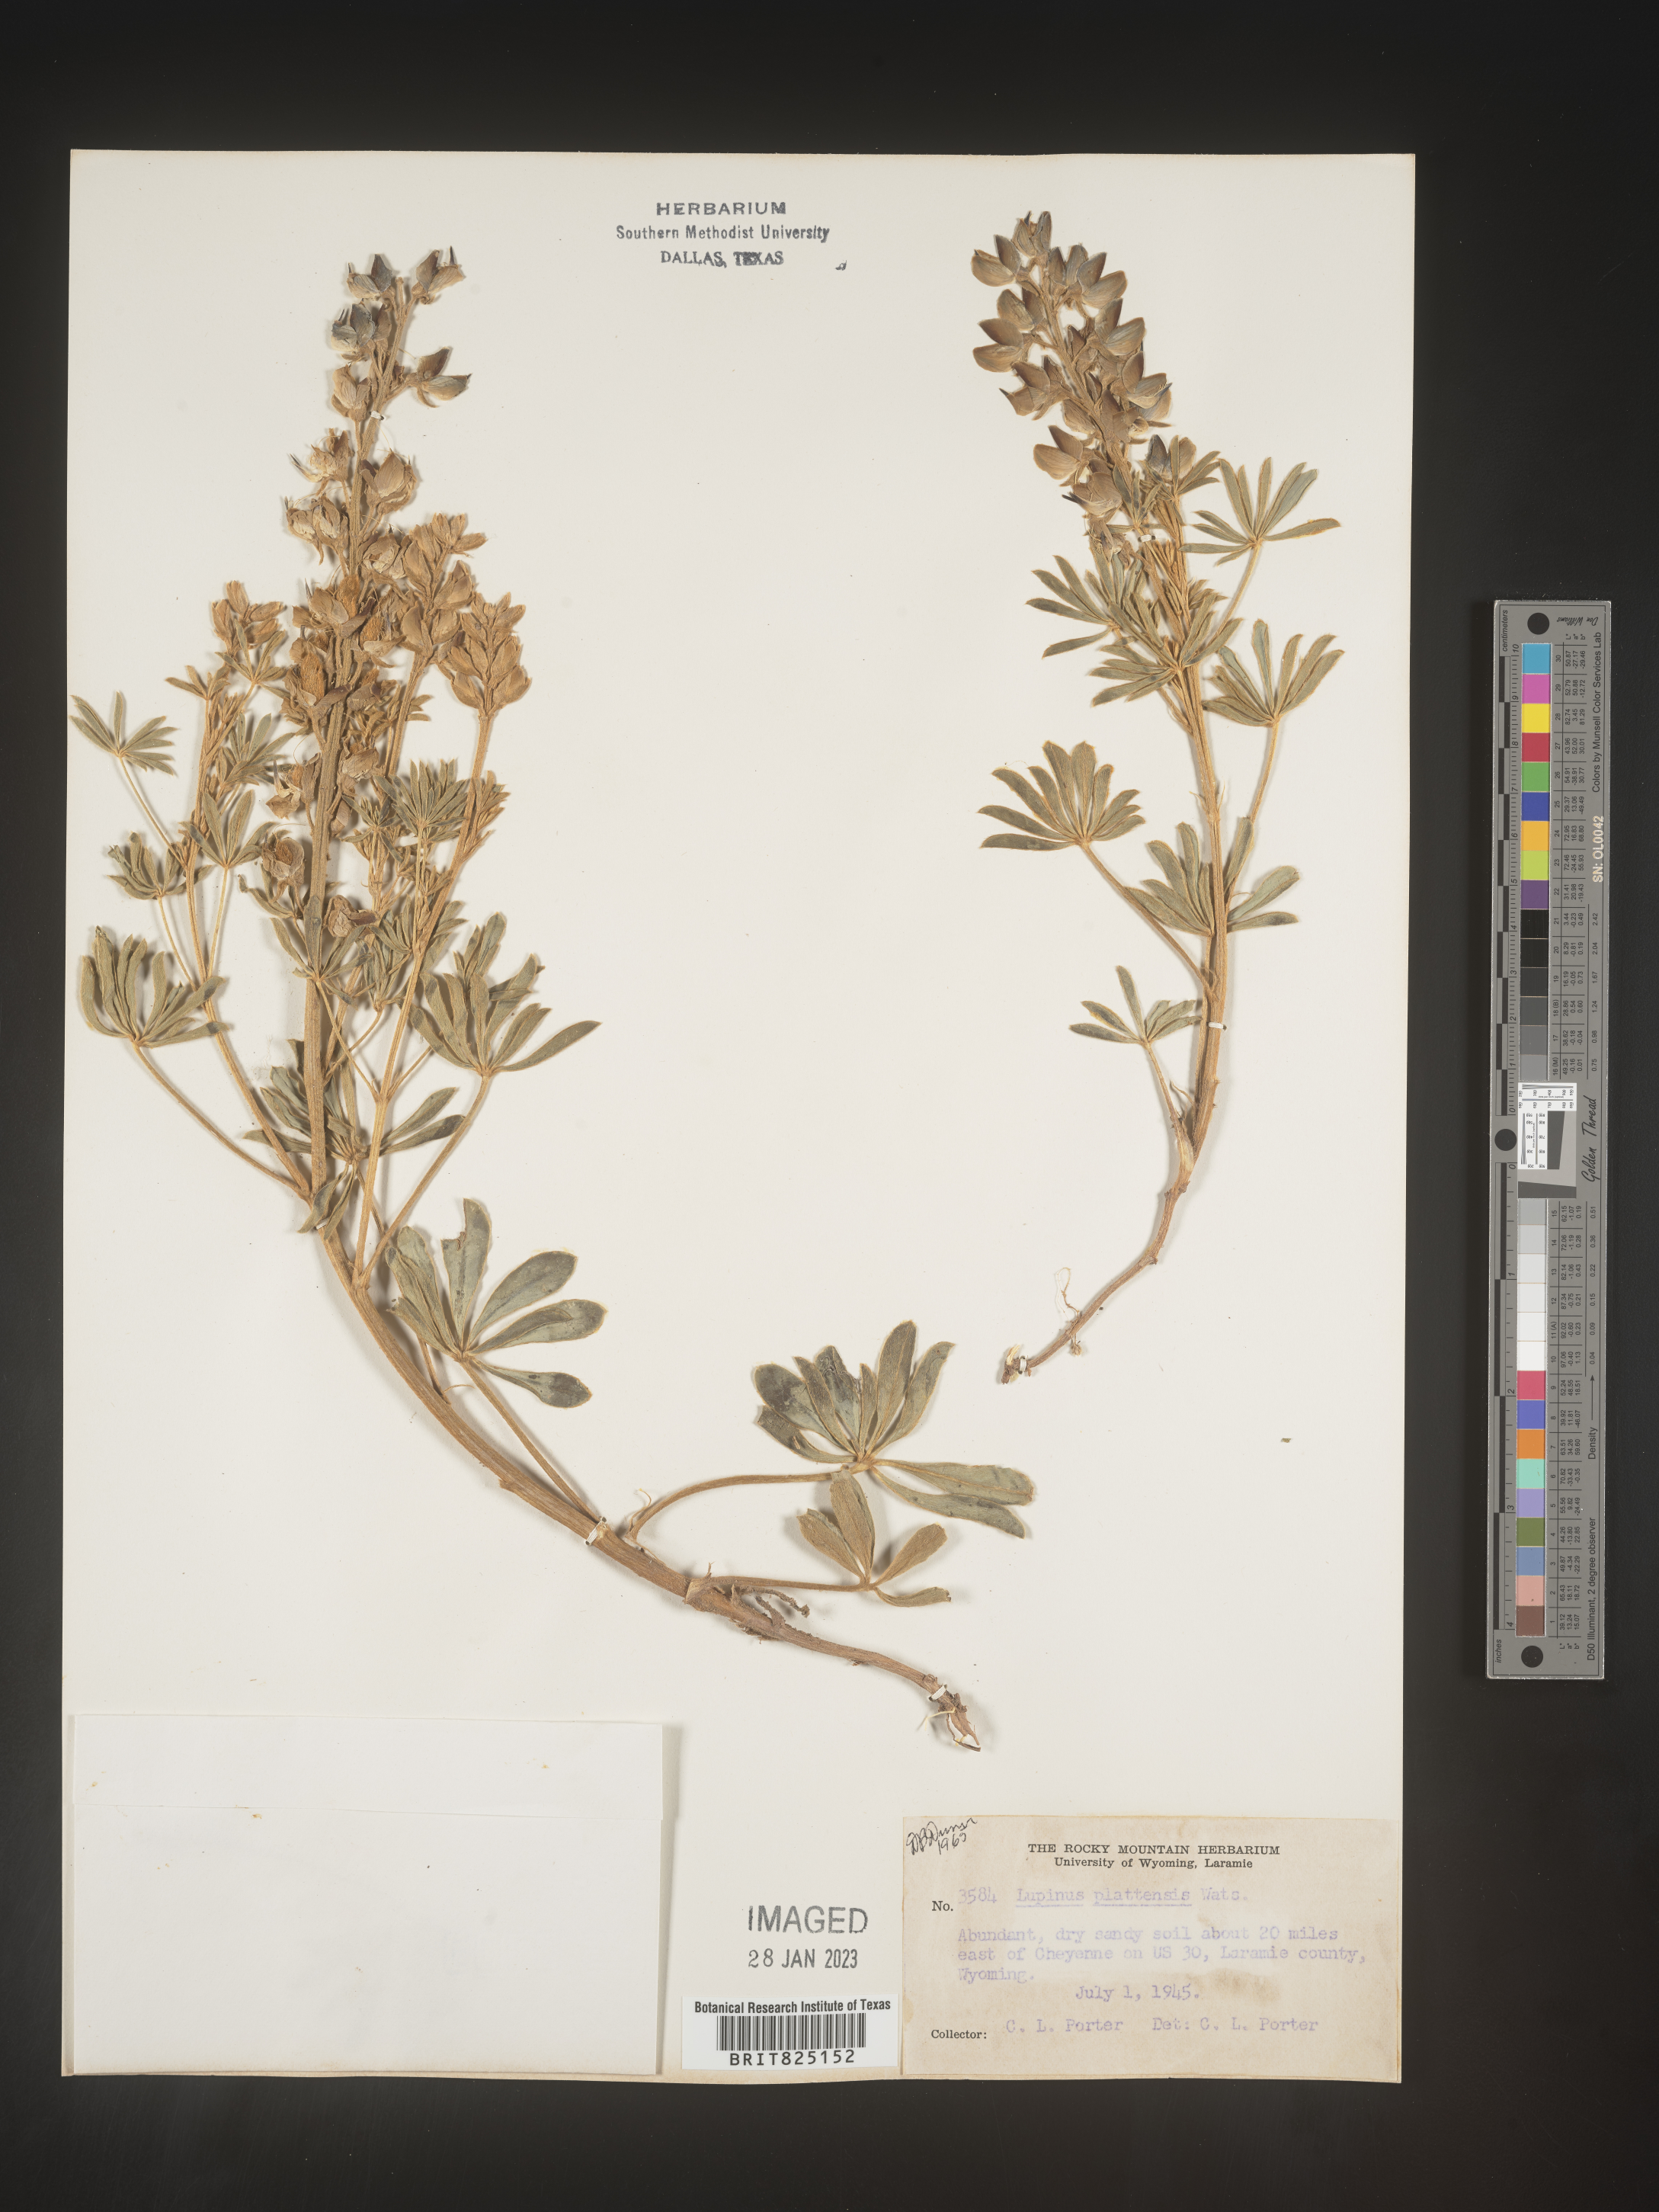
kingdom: Plantae
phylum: Tracheophyta
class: Magnoliopsida
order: Fabales
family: Fabaceae
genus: Lupinus
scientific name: Lupinus plattensis
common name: Platte lupine
